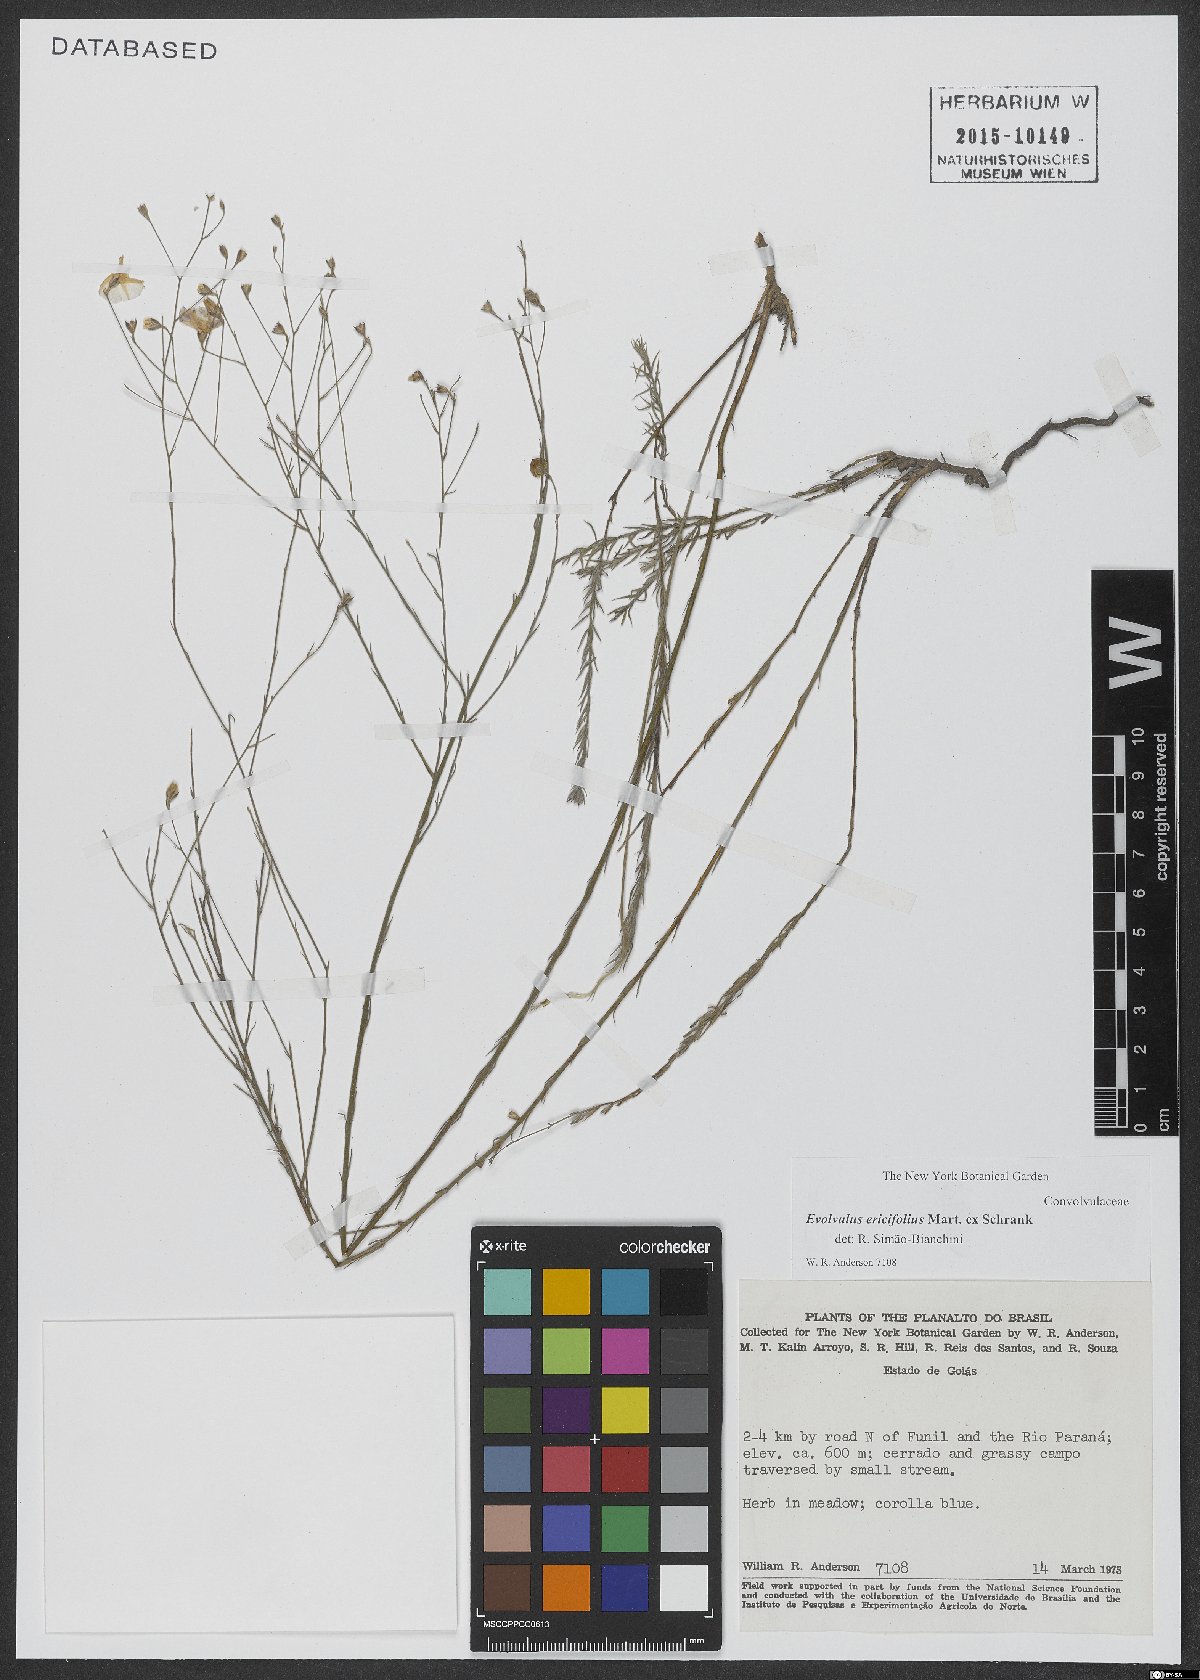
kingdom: Plantae
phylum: Tracheophyta
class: Magnoliopsida
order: Solanales
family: Convolvulaceae
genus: Evolvulus
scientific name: Evolvulus ericifolius
